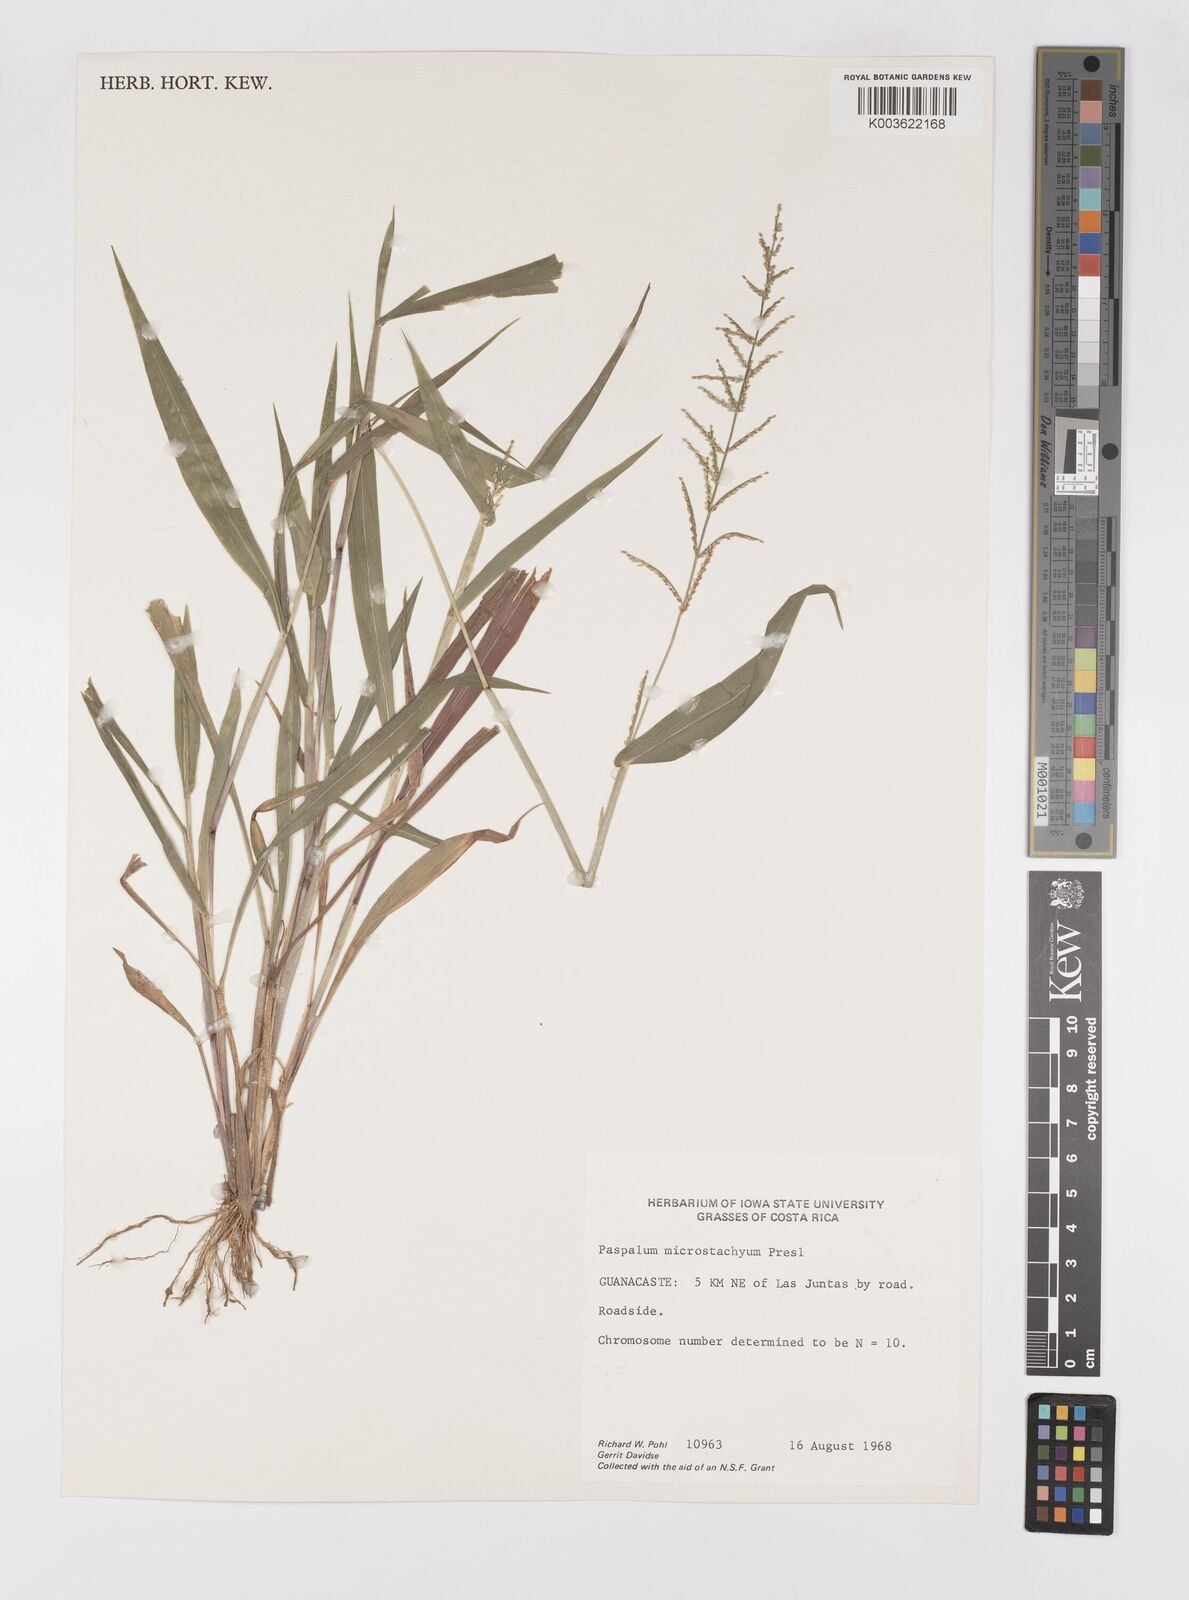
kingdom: Plantae
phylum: Tracheophyta
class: Liliopsida
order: Poales
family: Poaceae
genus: Paspalum
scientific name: Paspalum microstachyum
